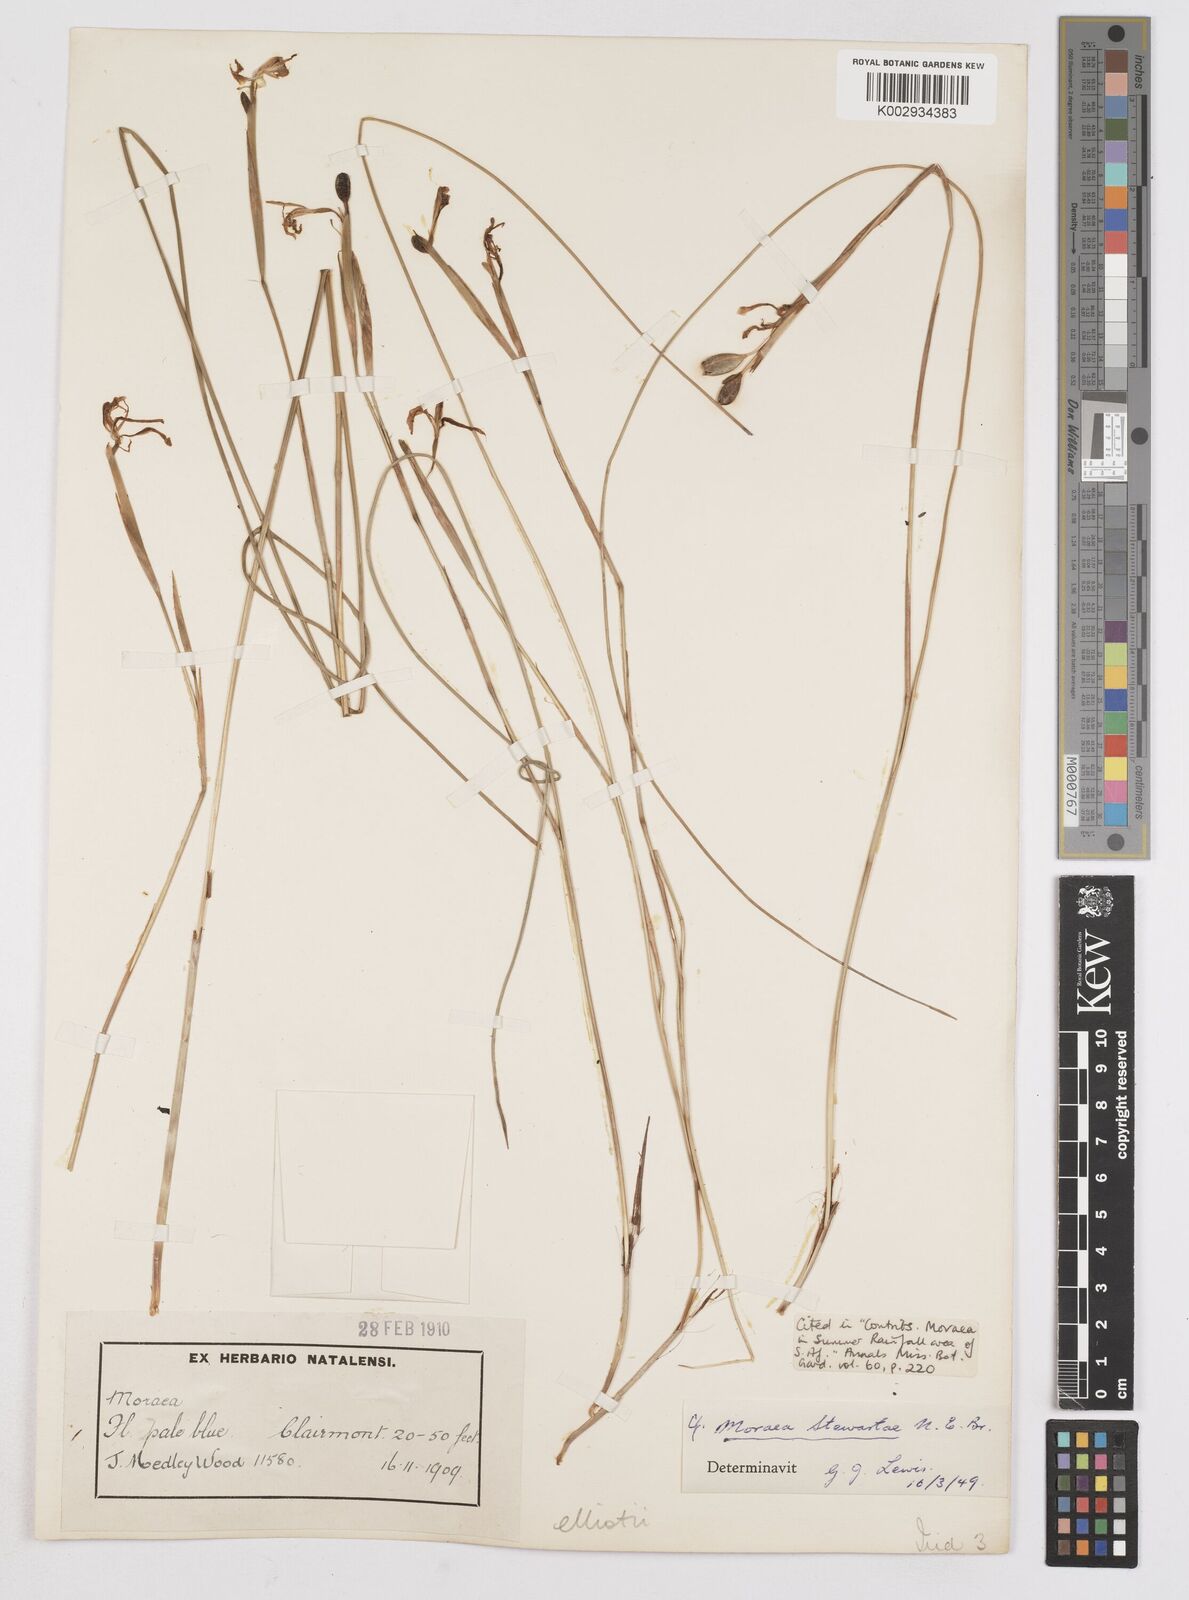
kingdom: Plantae
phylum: Tracheophyta
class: Liliopsida
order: Asparagales
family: Iridaceae
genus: Moraea
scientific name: Moraea elliotii
